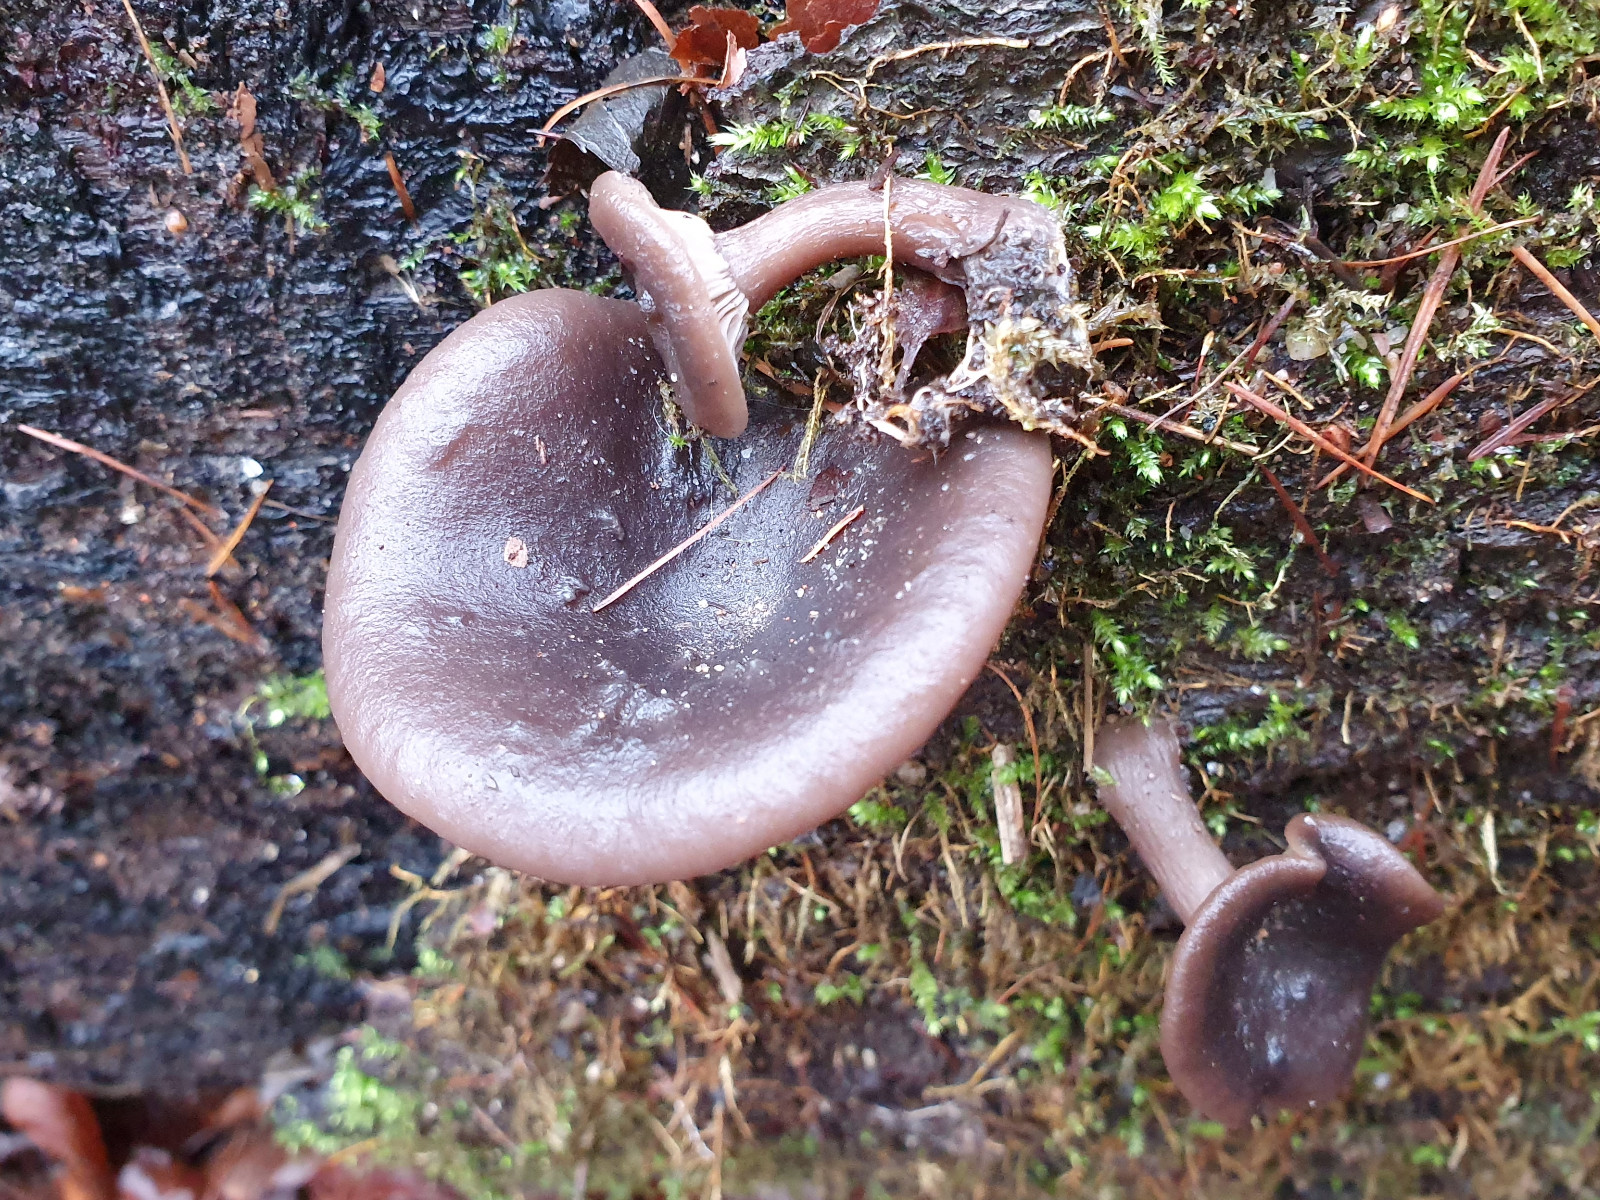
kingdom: Fungi
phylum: Basidiomycota
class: Agaricomycetes
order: Agaricales
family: Pseudoclitocybaceae
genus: Pseudoclitocybe
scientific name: Pseudoclitocybe cyathiformis
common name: almindelig bægertragthat
